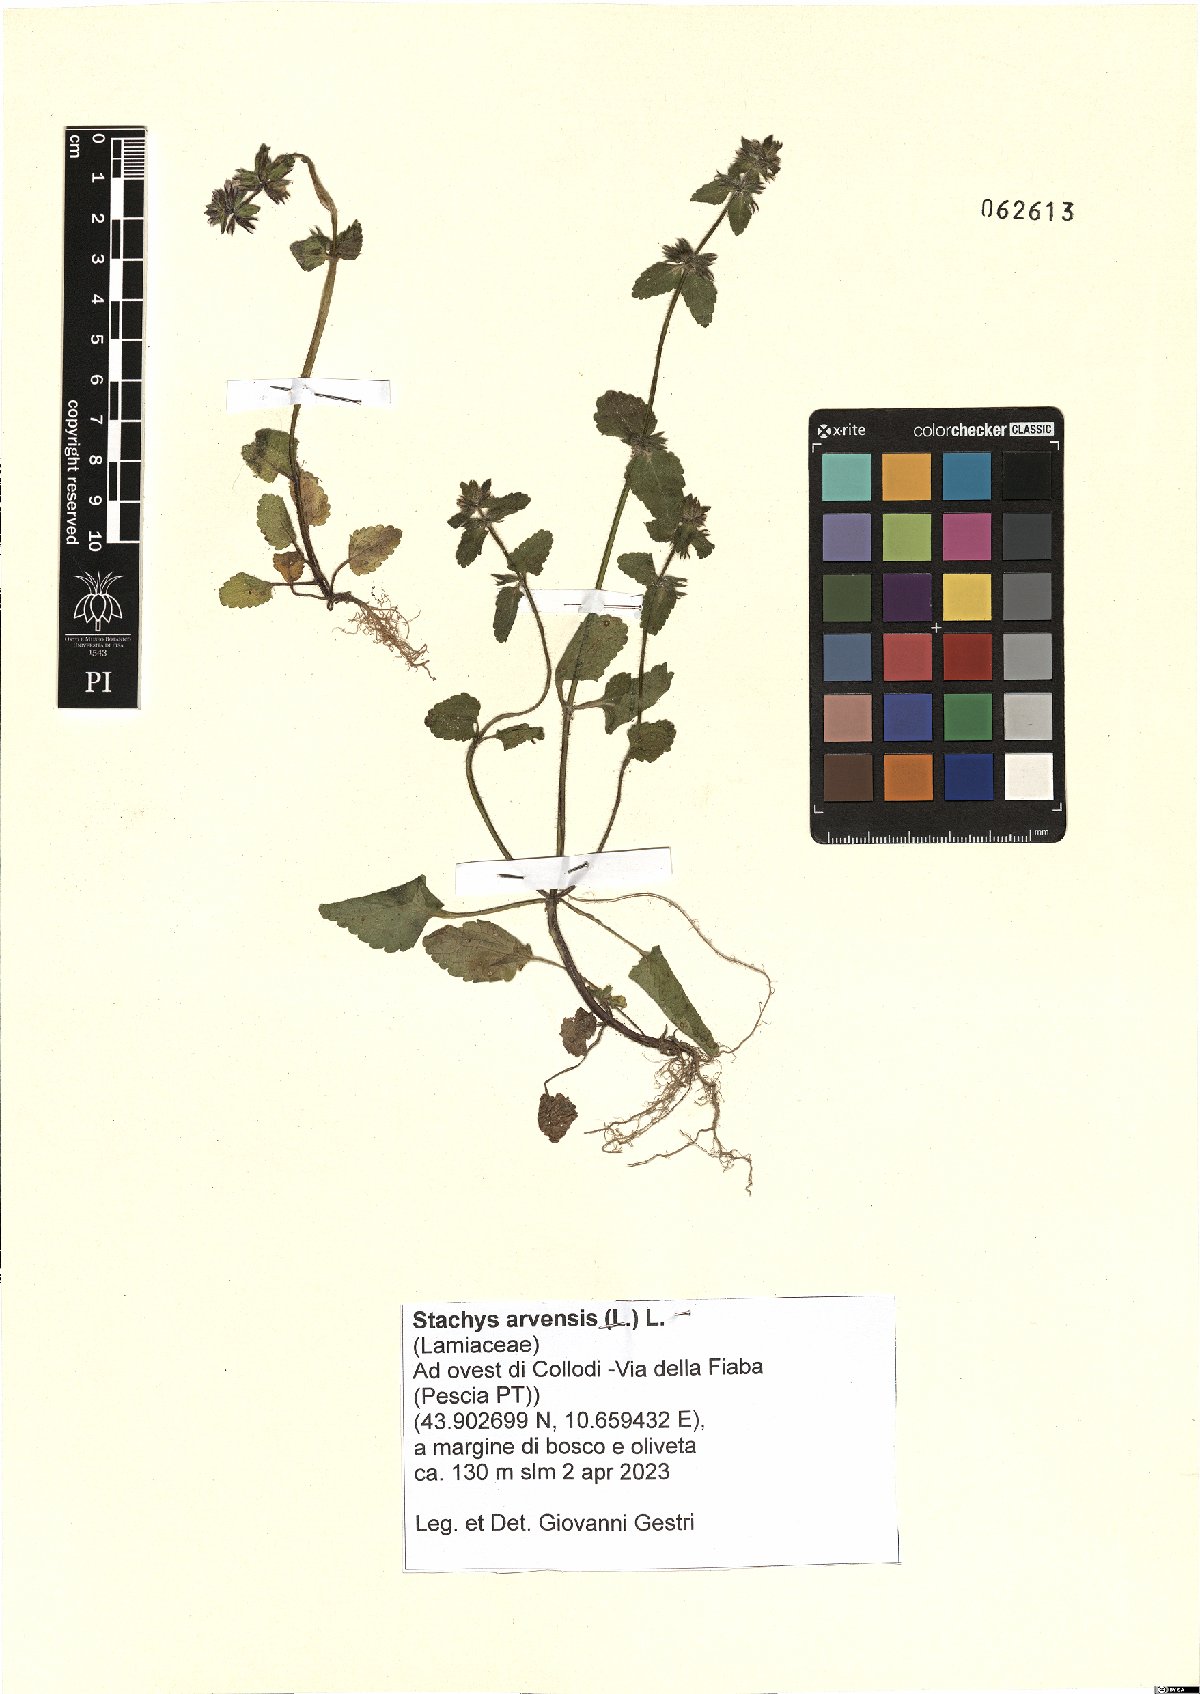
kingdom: Plantae
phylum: Tracheophyta
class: Magnoliopsida
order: Lamiales
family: Lamiaceae
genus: Stachys
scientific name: Stachys arvensis
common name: Field woundwort
